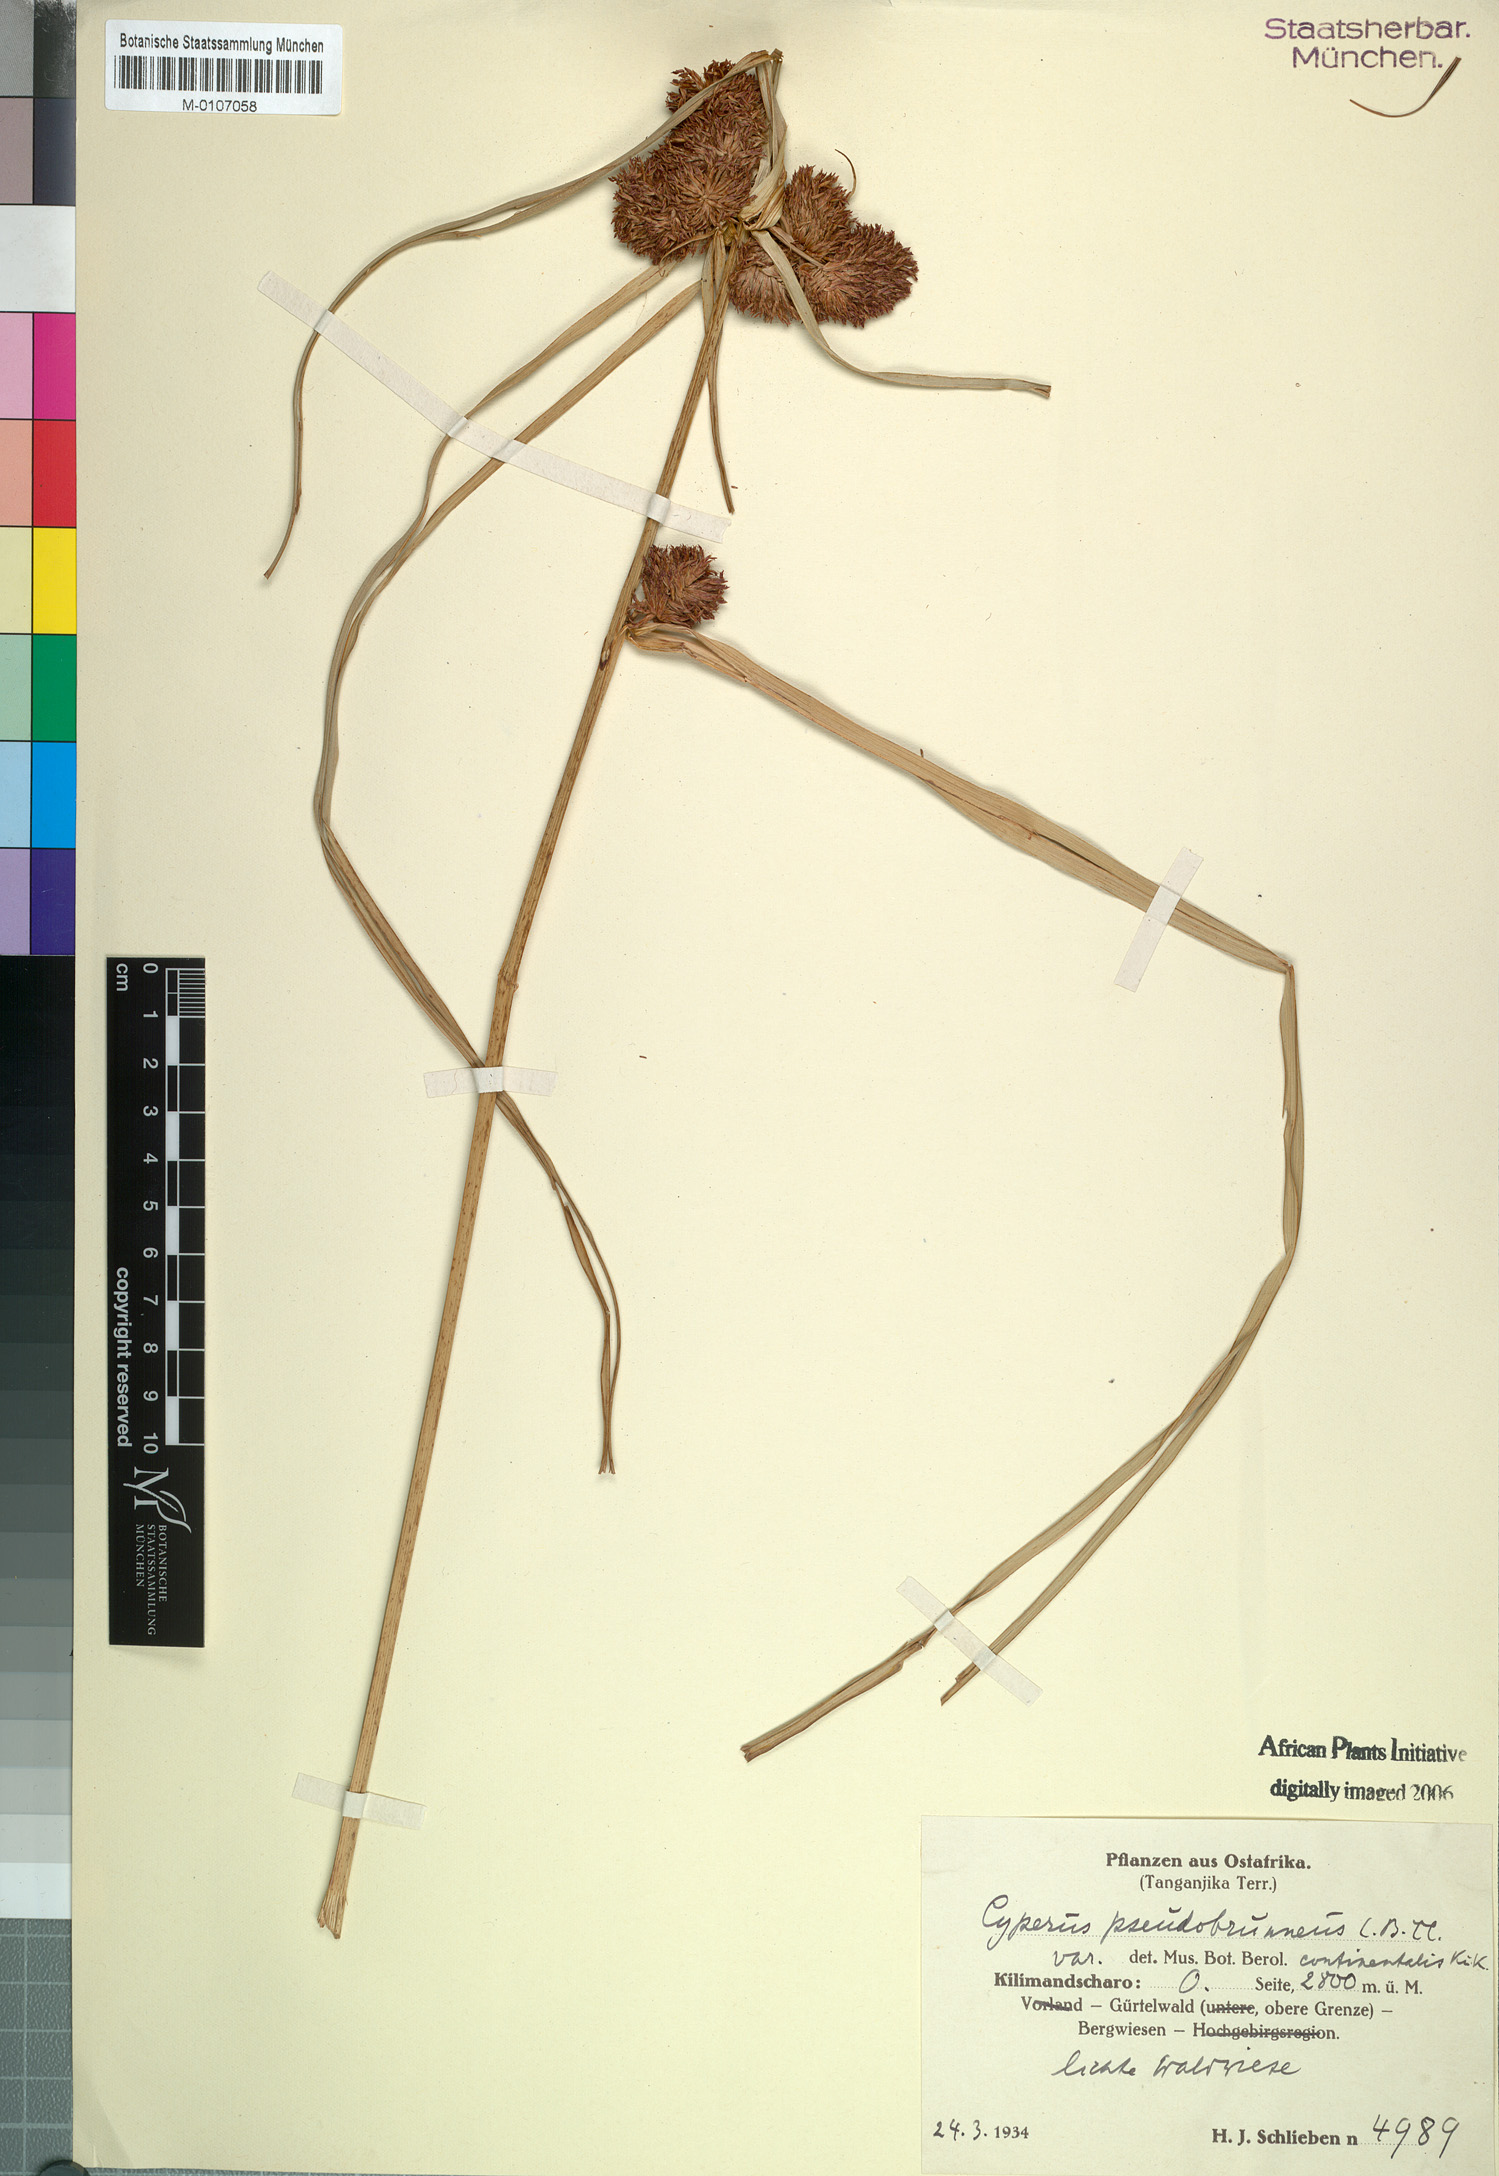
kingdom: Plantae
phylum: Tracheophyta
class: Liliopsida
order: Poales
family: Cyperaceae
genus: Cyperus
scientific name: Cyperus pseudobrunneus
